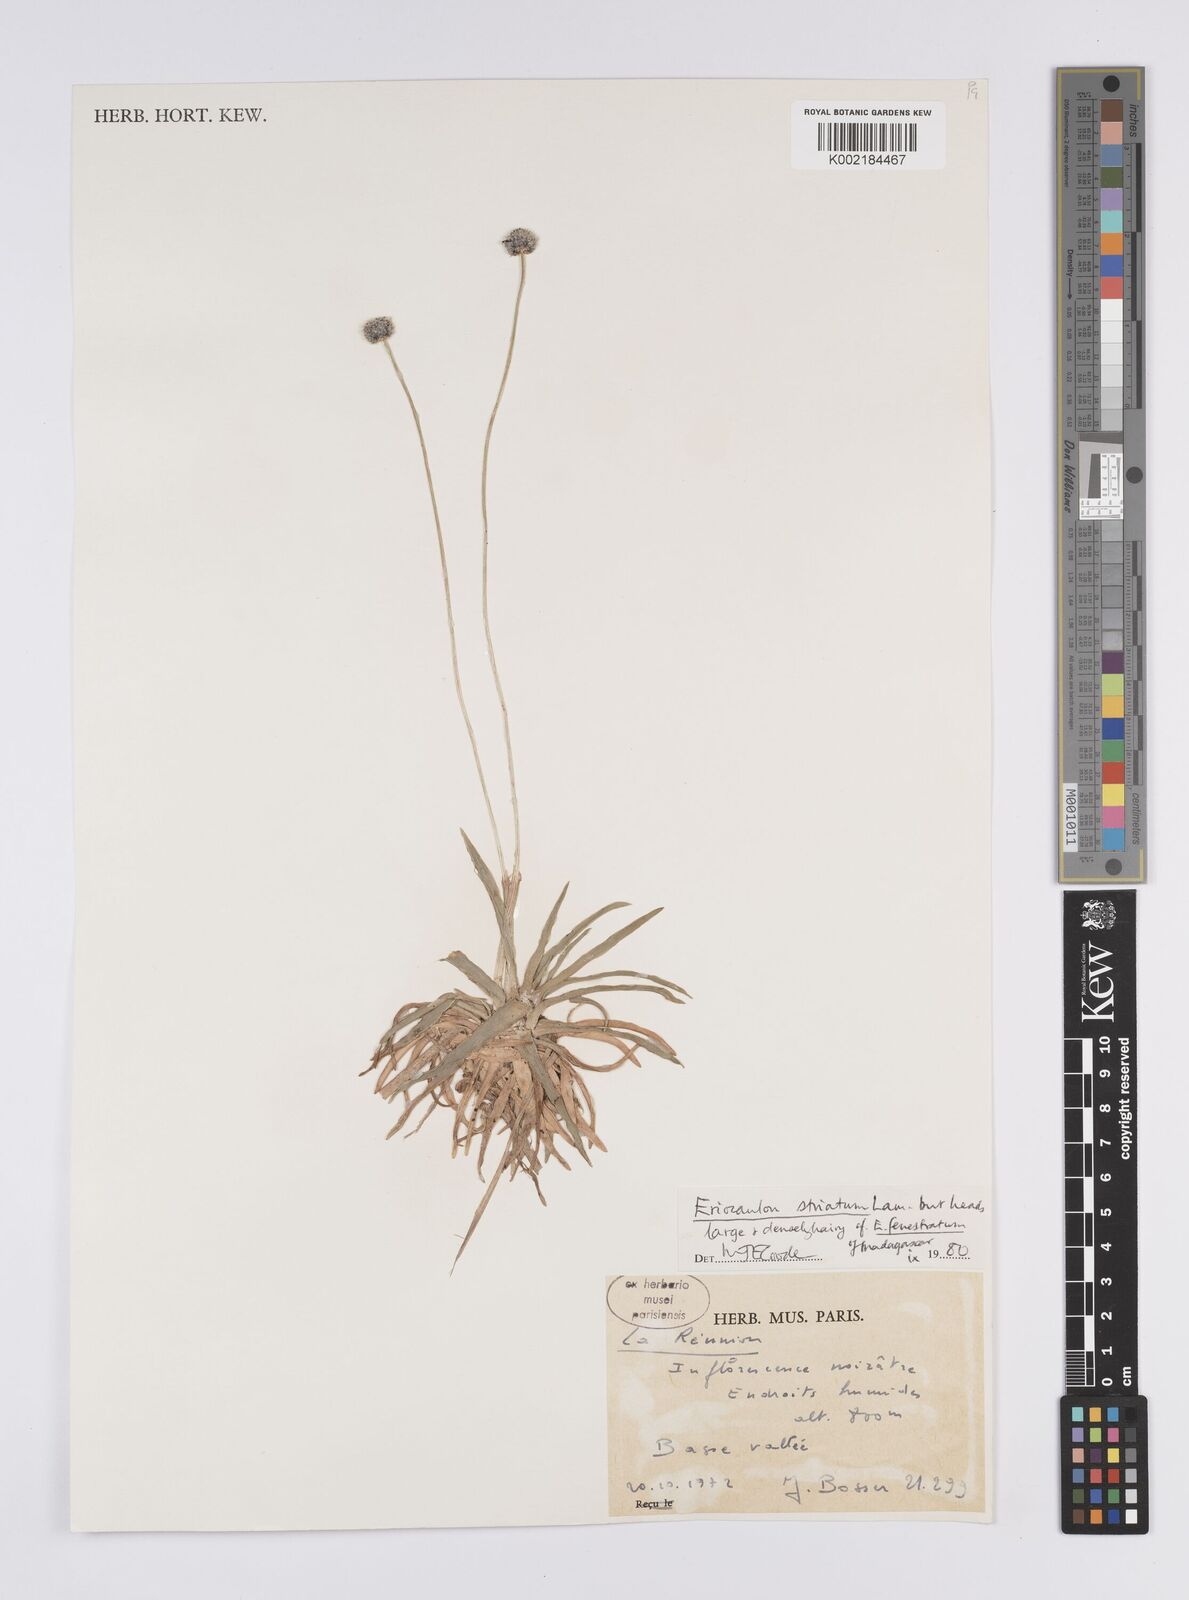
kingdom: Plantae
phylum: Tracheophyta
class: Liliopsida
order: Poales
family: Eriocaulaceae
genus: Eriocaulon
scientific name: Eriocaulon striatum
